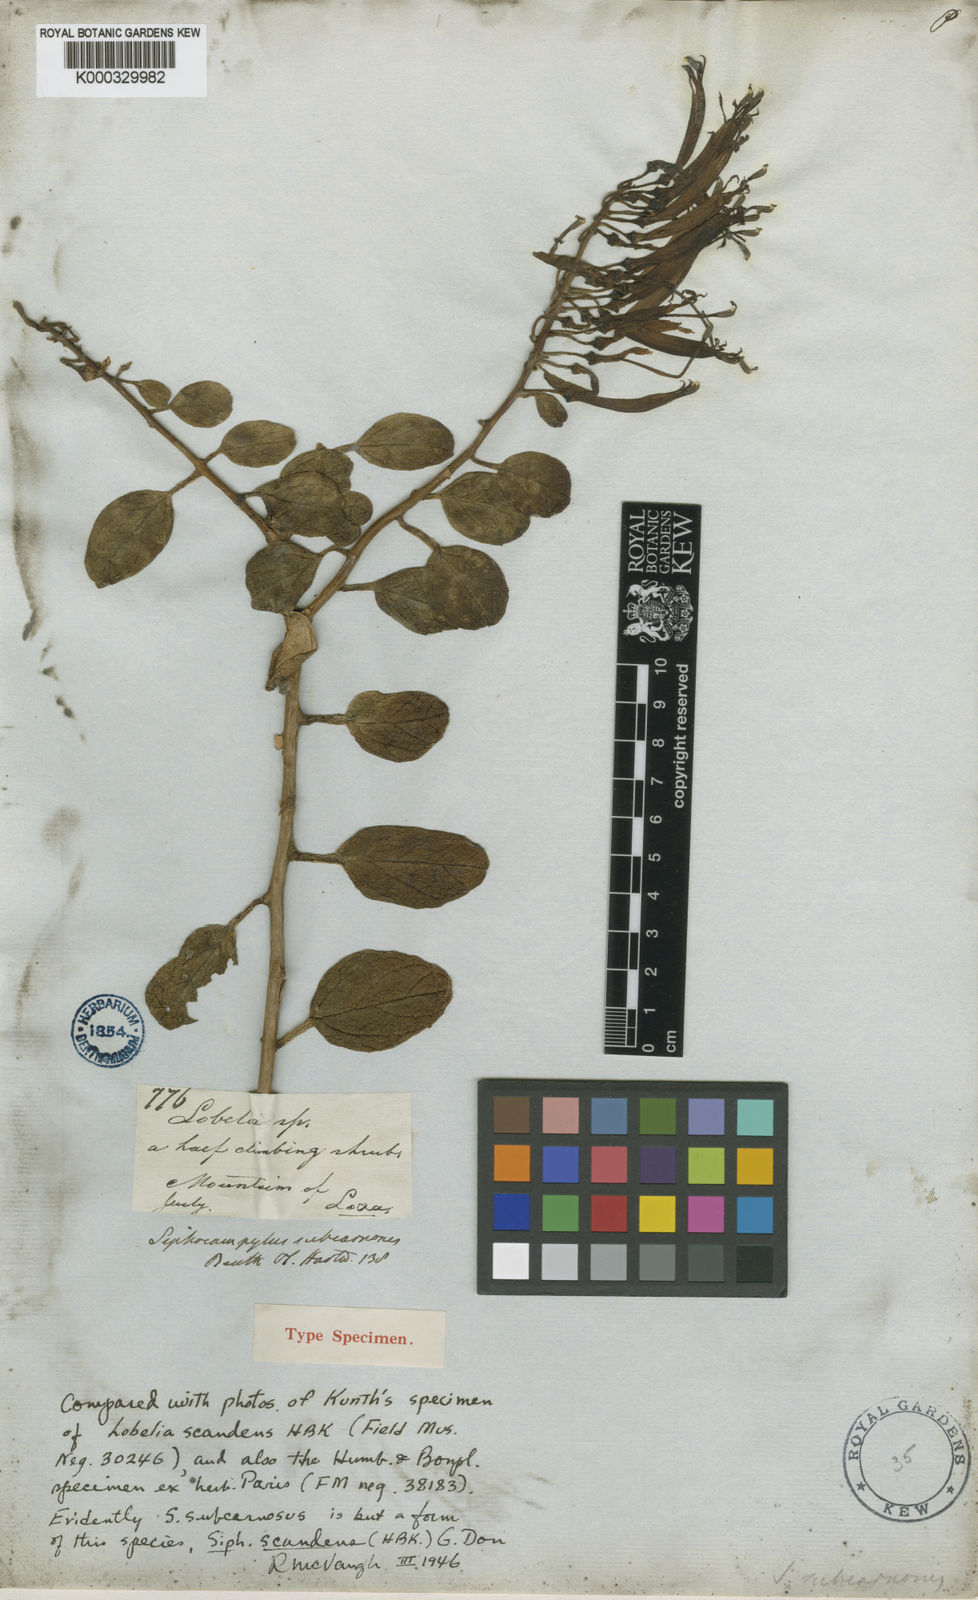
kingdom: Plantae
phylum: Tracheophyta
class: Magnoliopsida
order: Asterales
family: Campanulaceae
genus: Siphocampylus
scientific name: Siphocampylus scandens
